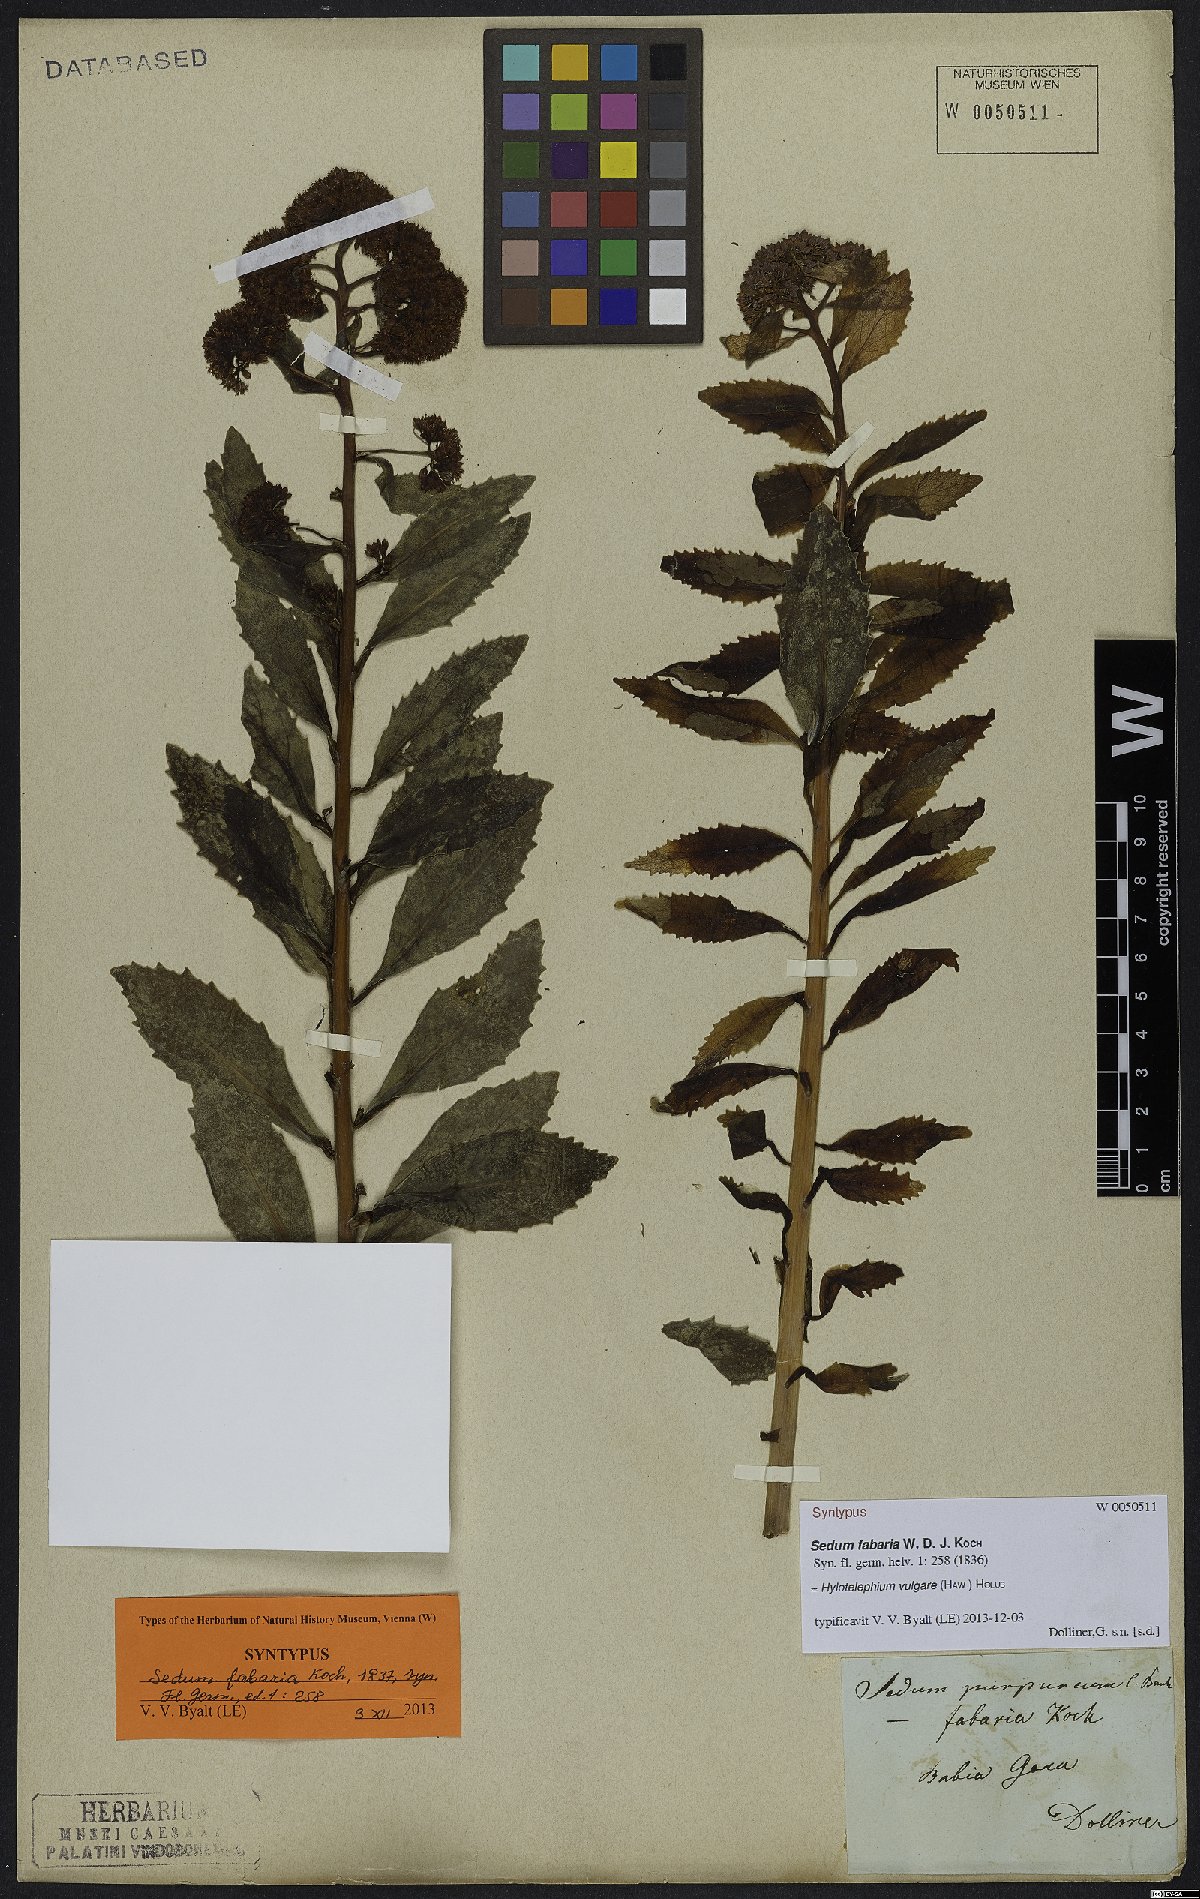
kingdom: Plantae
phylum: Tracheophyta
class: Magnoliopsida
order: Saxifragales
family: Crassulaceae
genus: Hylotelephium
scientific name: Hylotelephium vulgare
